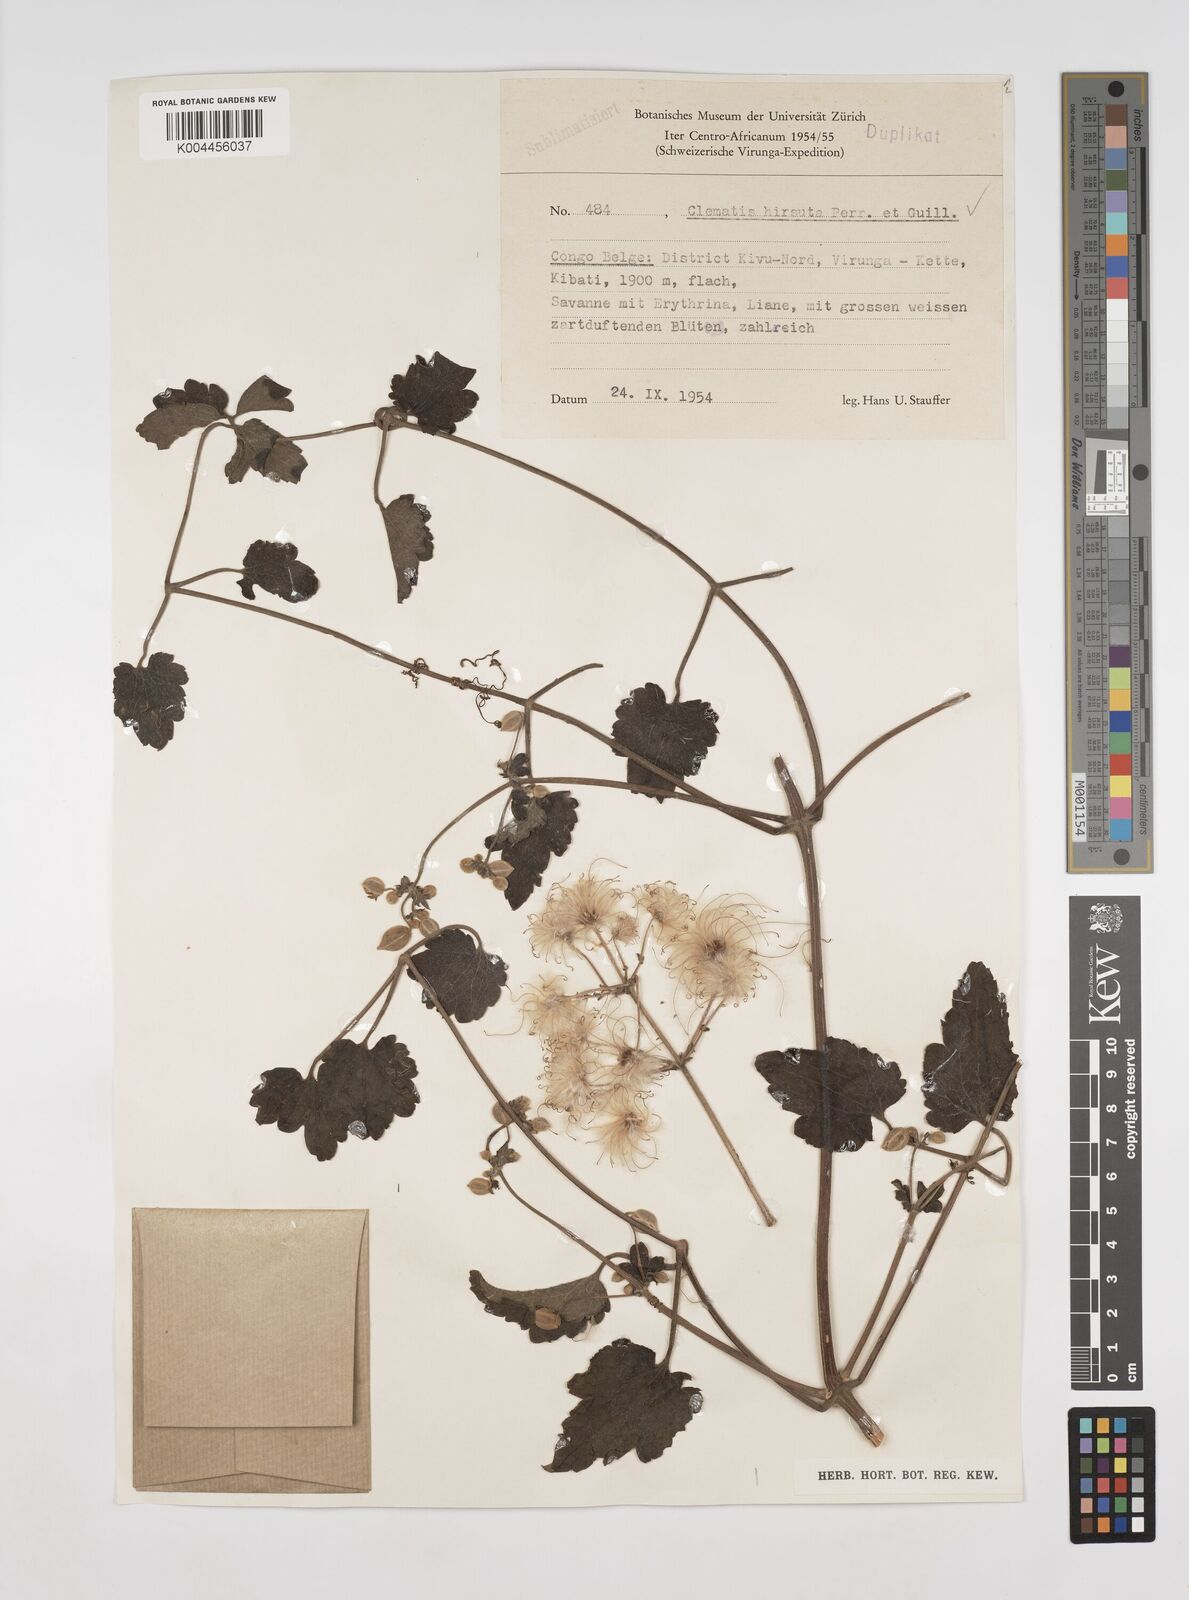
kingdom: Plantae
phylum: Tracheophyta
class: Magnoliopsida
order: Ranunculales
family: Ranunculaceae
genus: Clematis
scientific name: Clematis hirsuta
